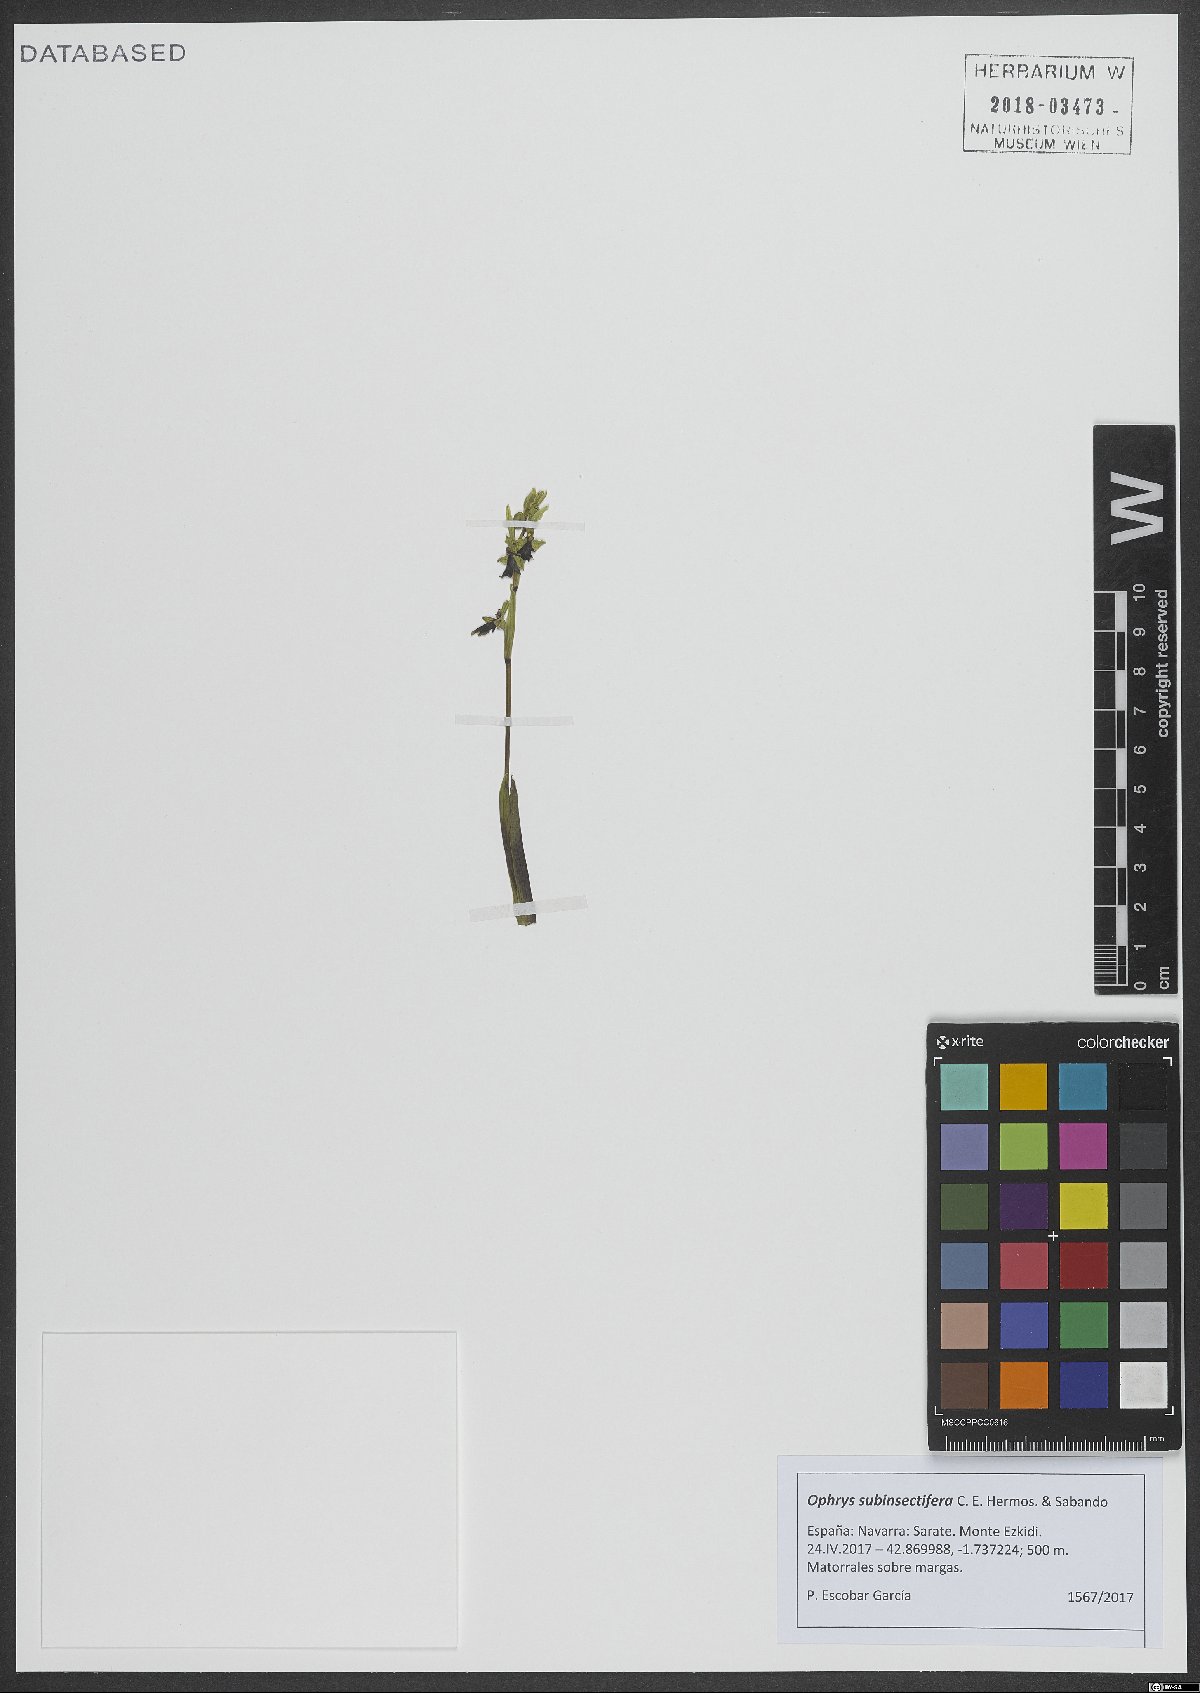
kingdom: Plantae
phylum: Tracheophyta
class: Liliopsida
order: Asparagales
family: Orchidaceae
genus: Ophrys
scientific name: Ophrys insectifera
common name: Fly orchid
